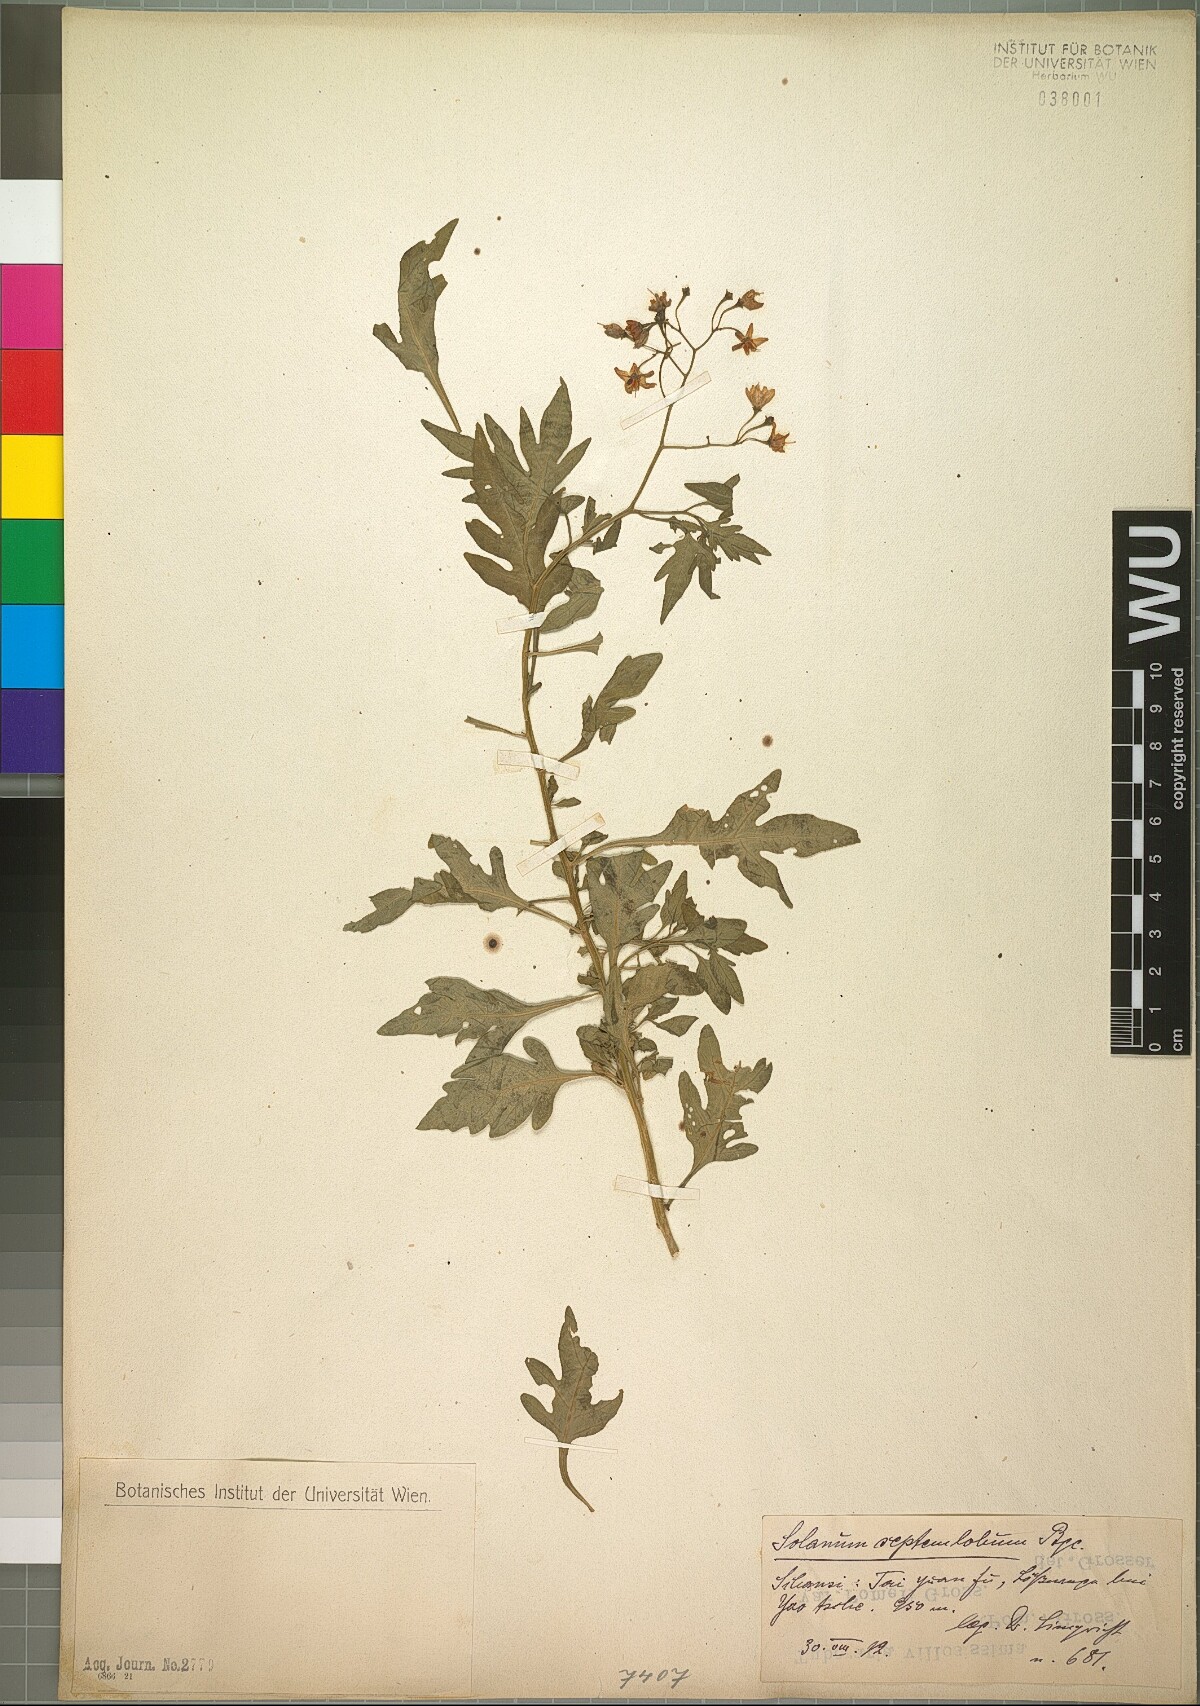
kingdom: Plantae
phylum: Tracheophyta
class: Magnoliopsida
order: Solanales
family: Solanaceae
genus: Solanum
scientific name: Solanum septemlobum
